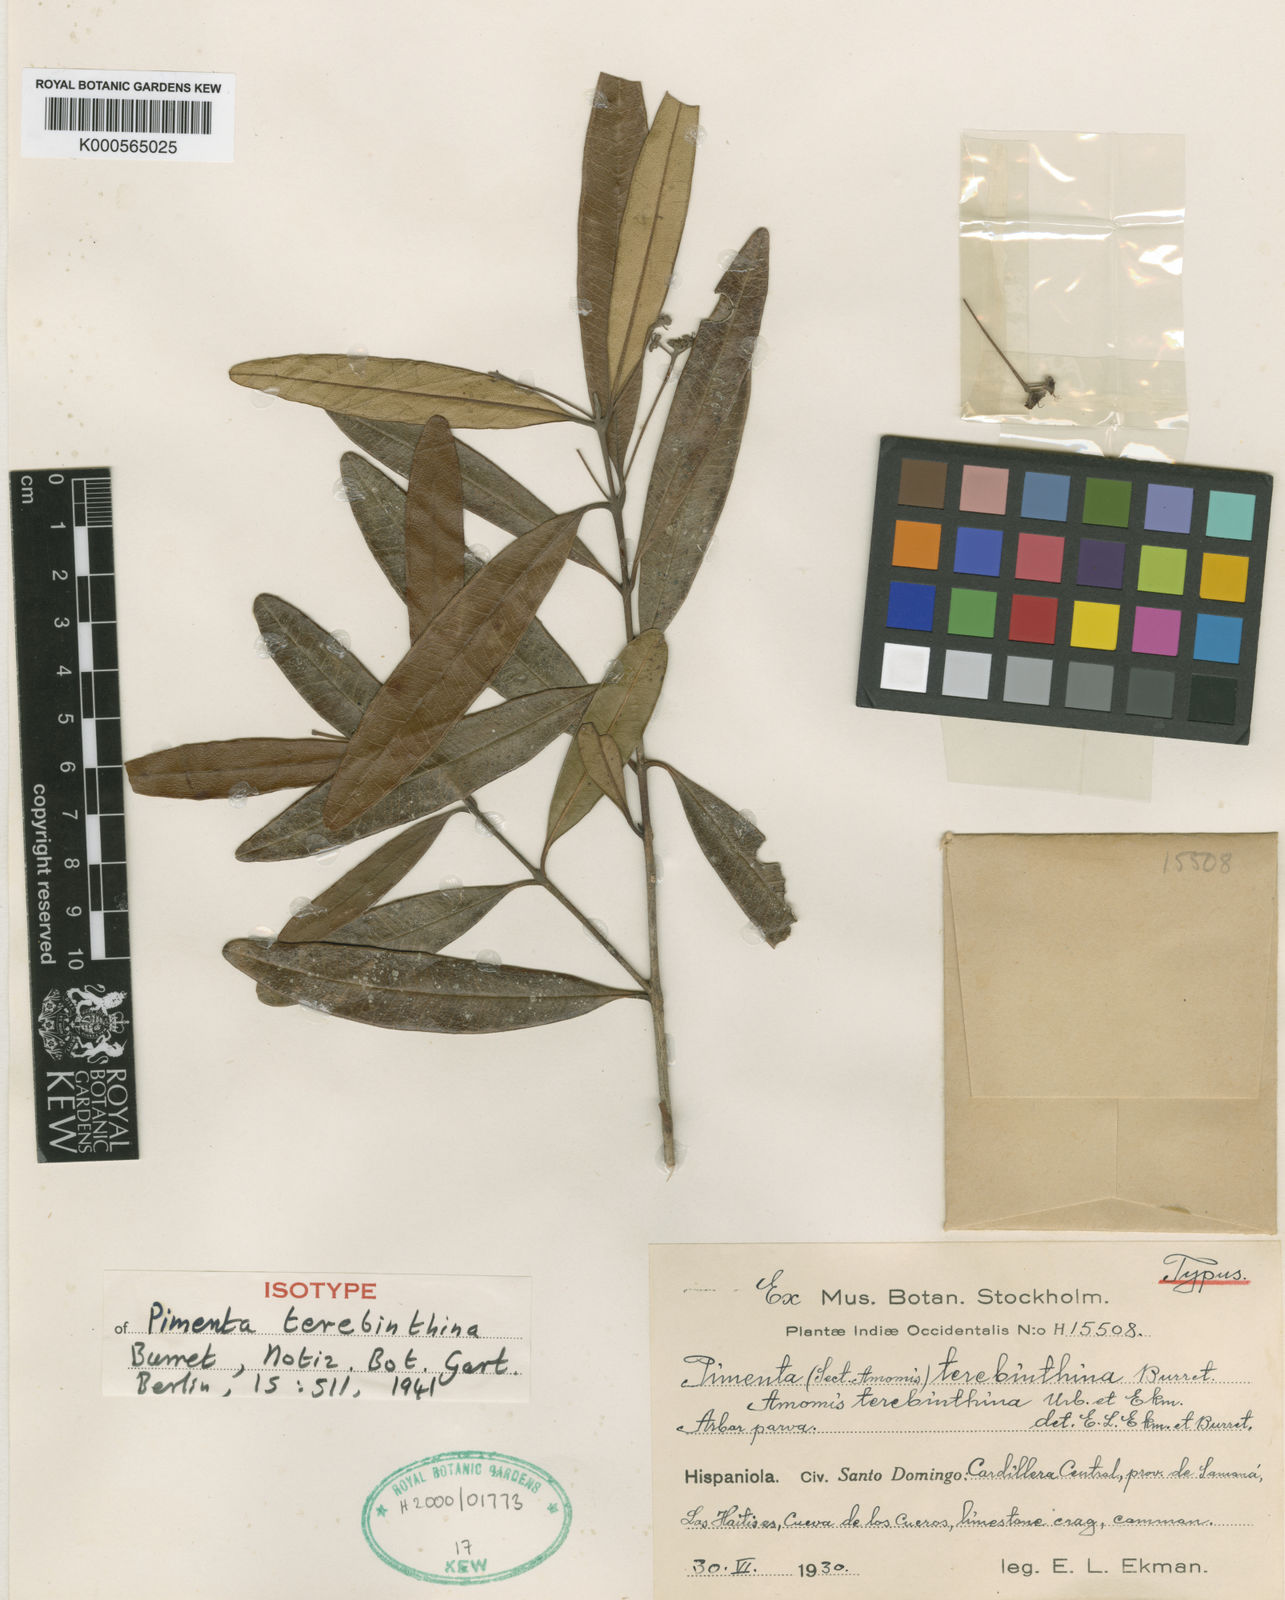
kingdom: Plantae
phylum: Tracheophyta
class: Magnoliopsida
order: Myrtales
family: Myrtaceae
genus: Pimenta
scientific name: Pimenta racemosa
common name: Bay rum tree
